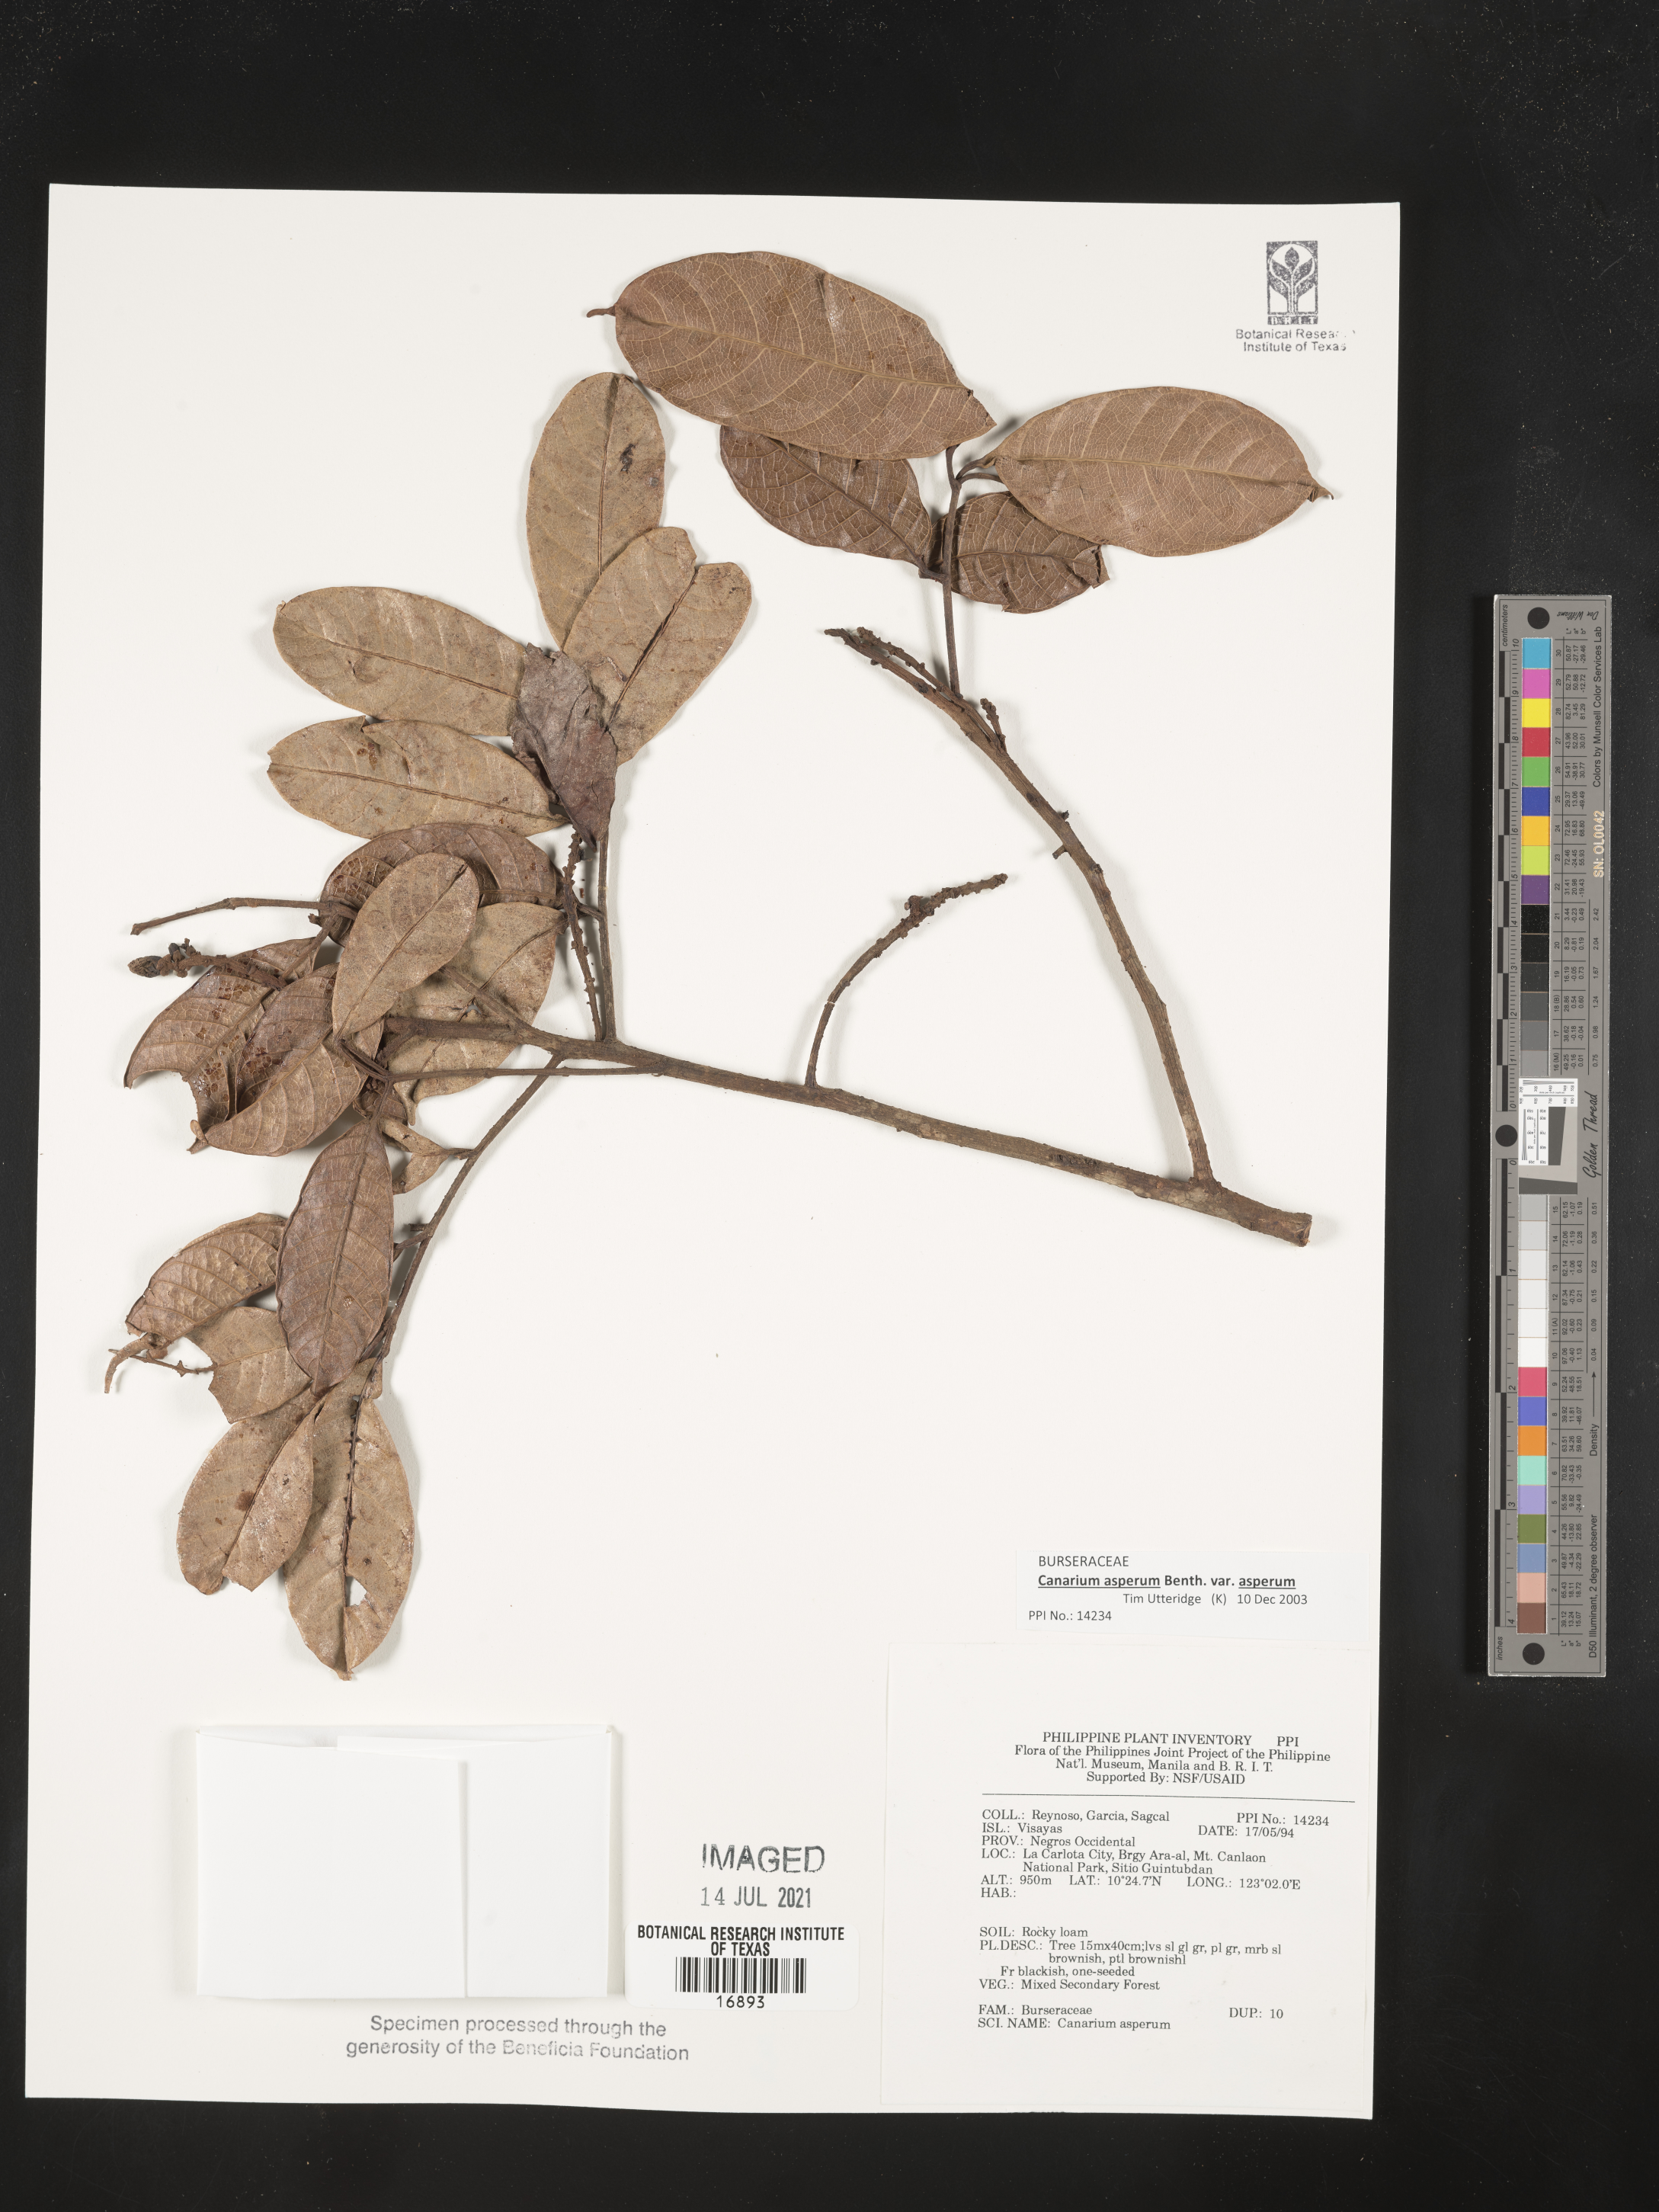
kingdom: Plantae
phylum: Tracheophyta
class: Magnoliopsida
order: Sapindales
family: Burseraceae
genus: Canarium
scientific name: Canarium asperum
